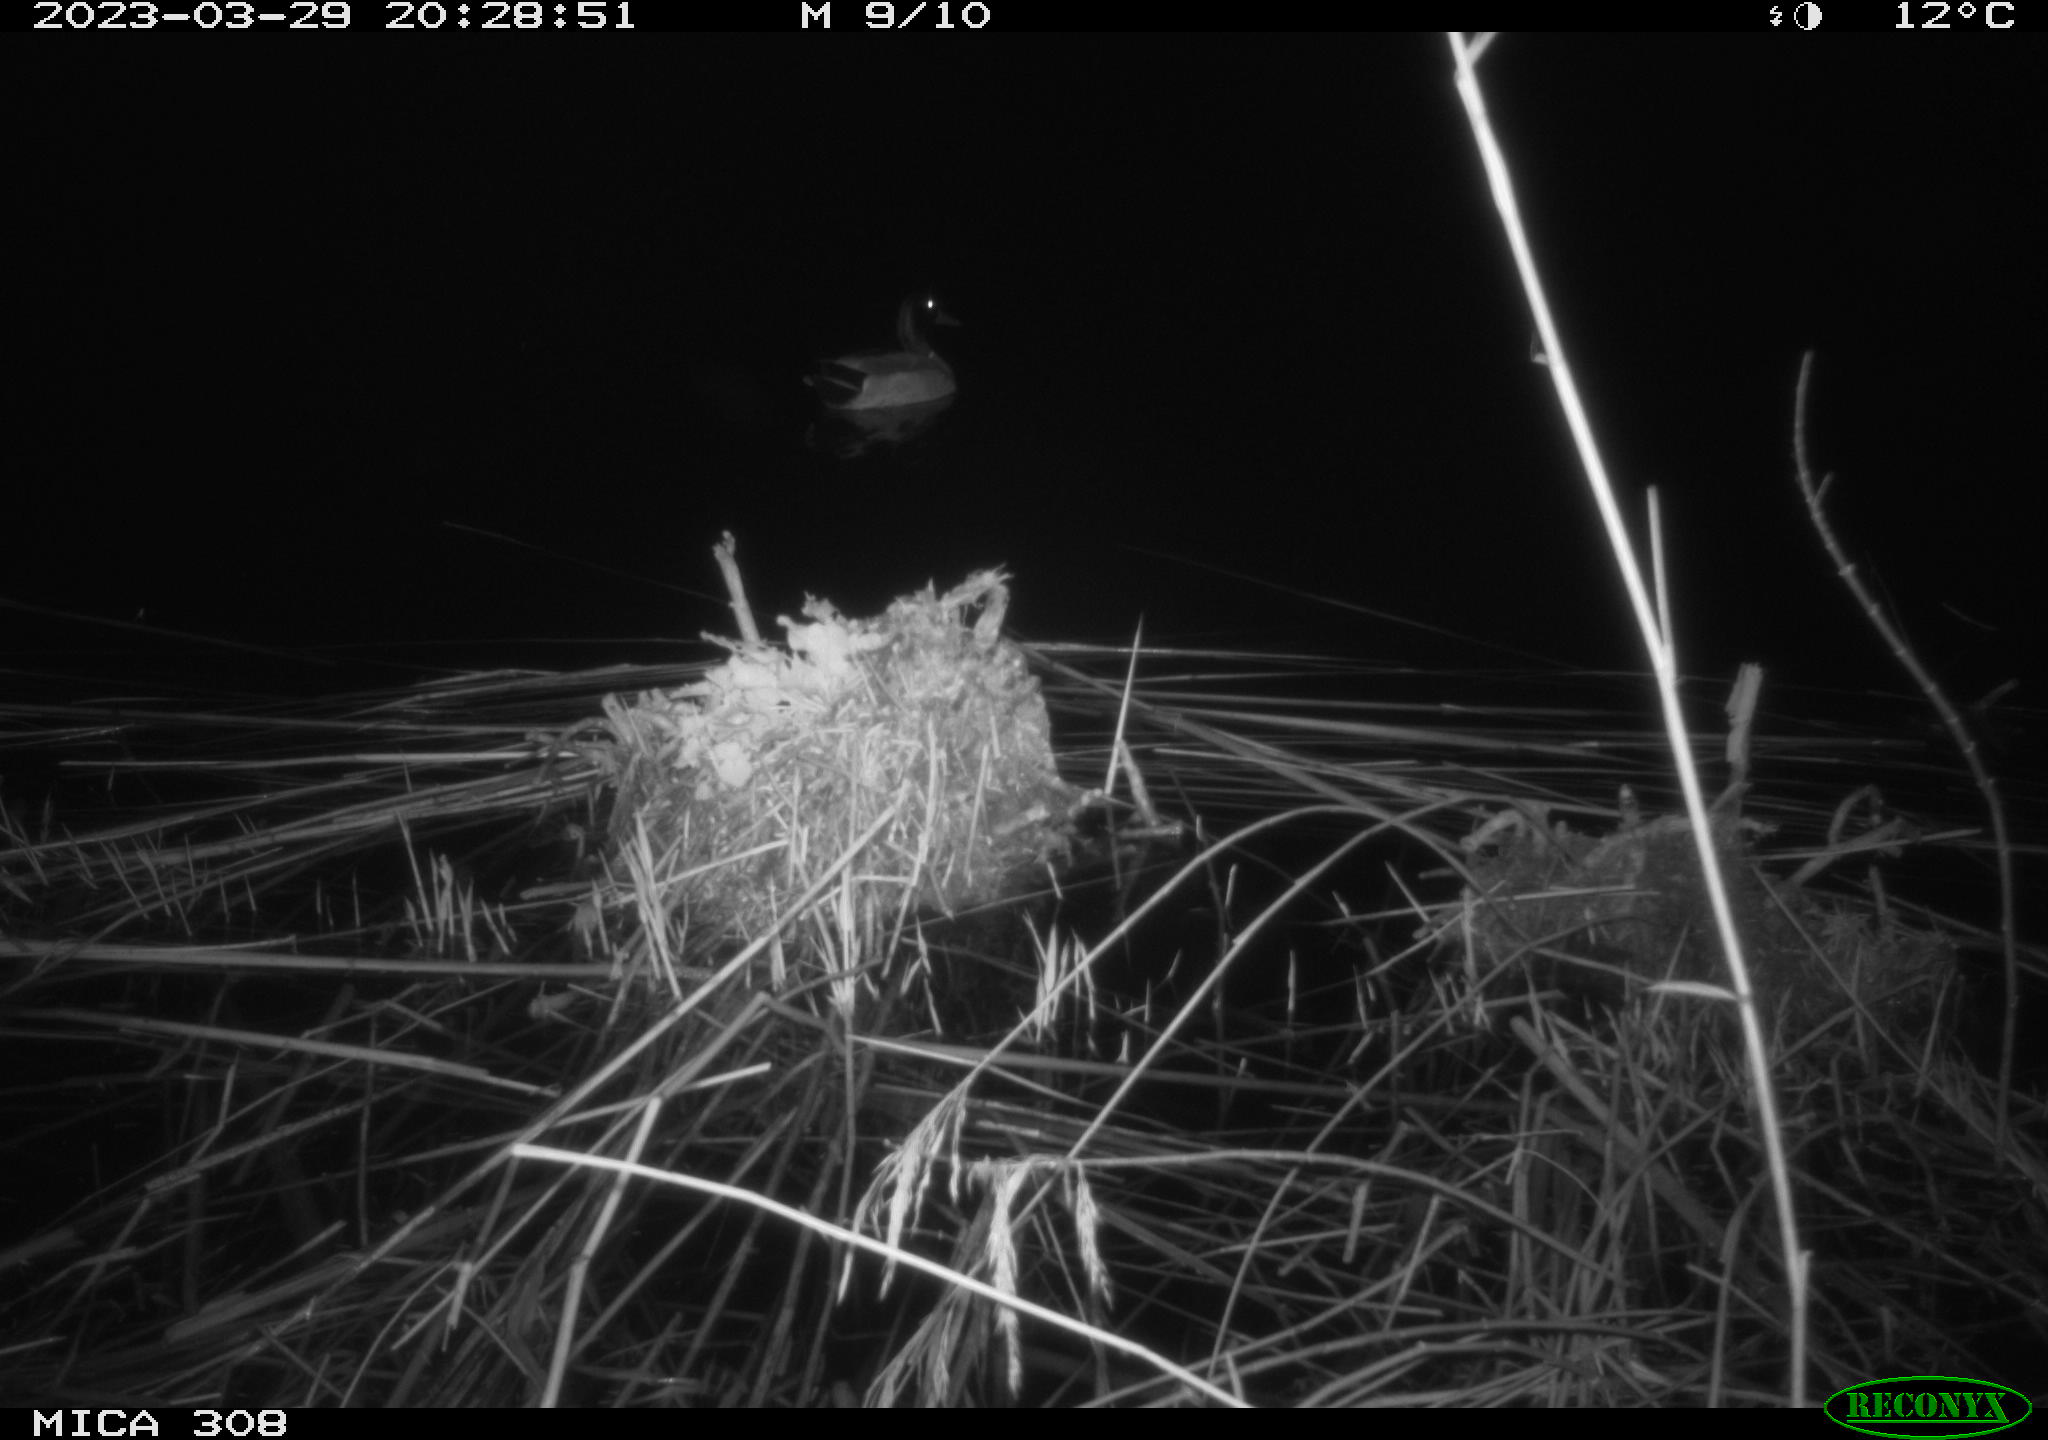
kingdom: Animalia
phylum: Chordata
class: Aves
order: Anseriformes
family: Anatidae
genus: Anas
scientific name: Anas
